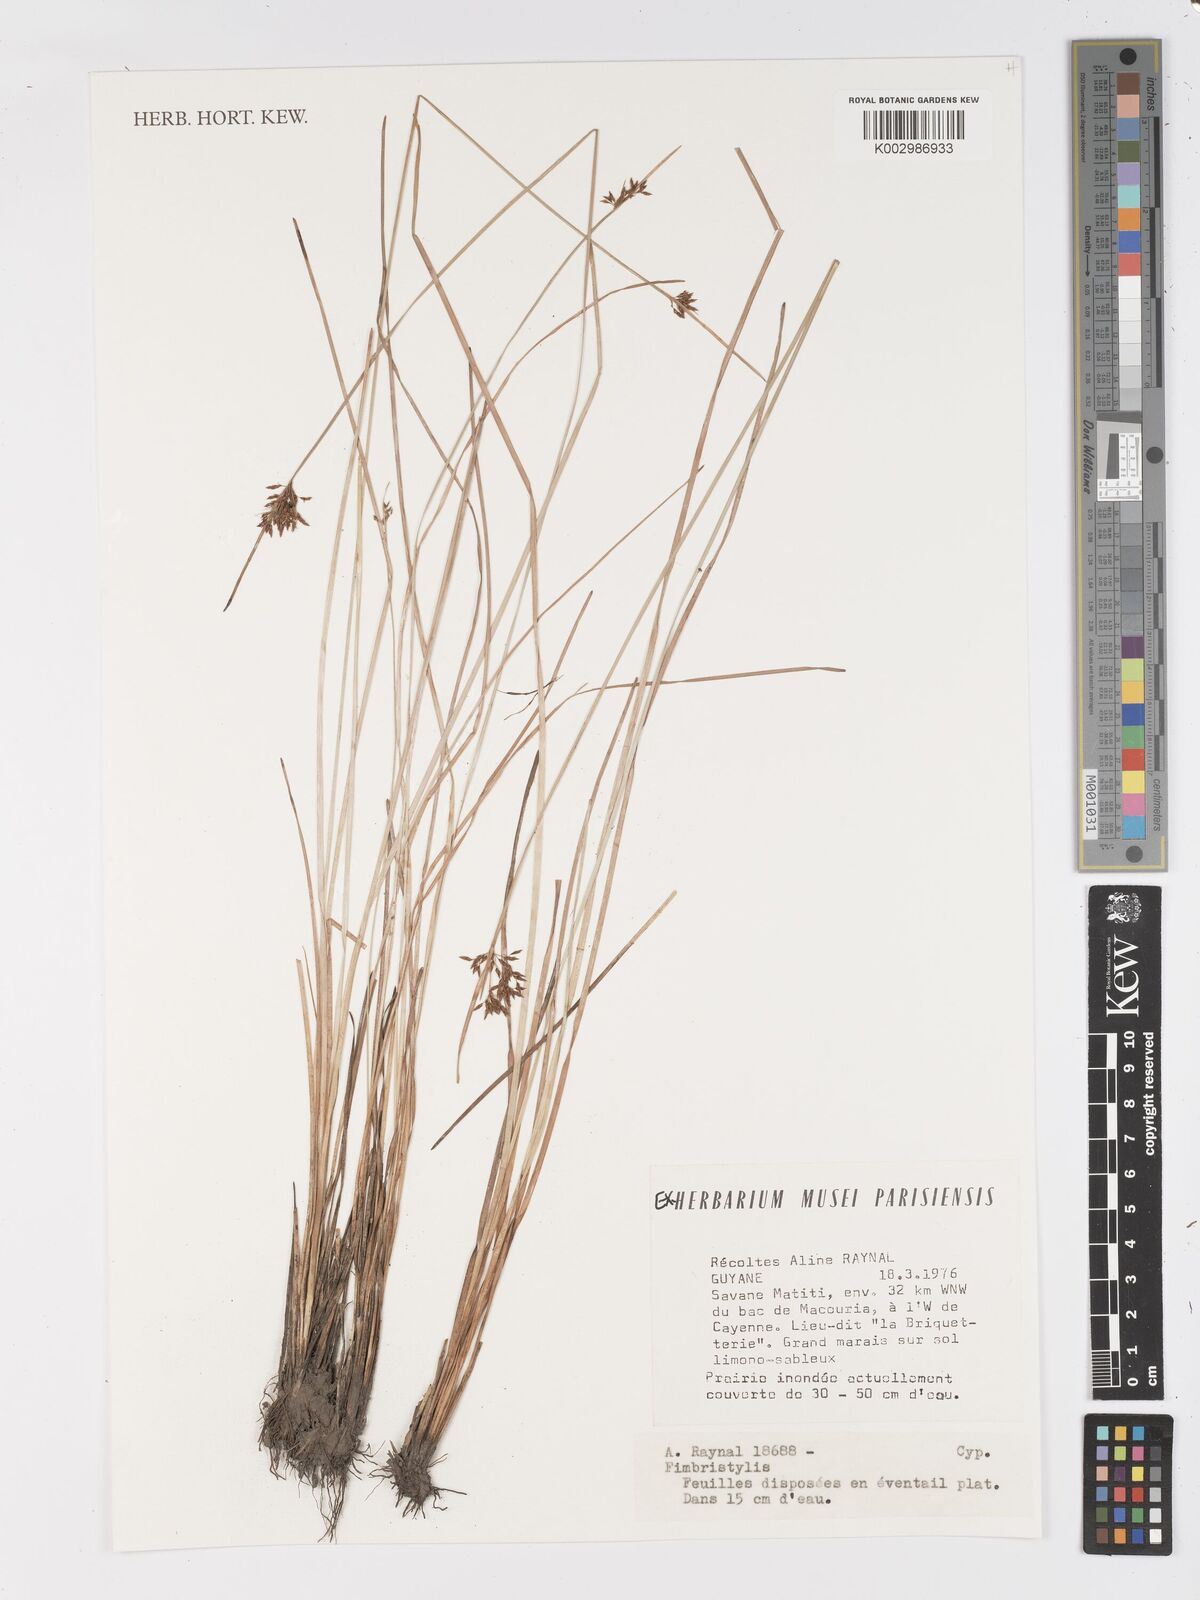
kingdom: Plantae
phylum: Tracheophyta
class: Liliopsida
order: Poales
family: Cyperaceae
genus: Fimbristylis
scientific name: Fimbristylis
